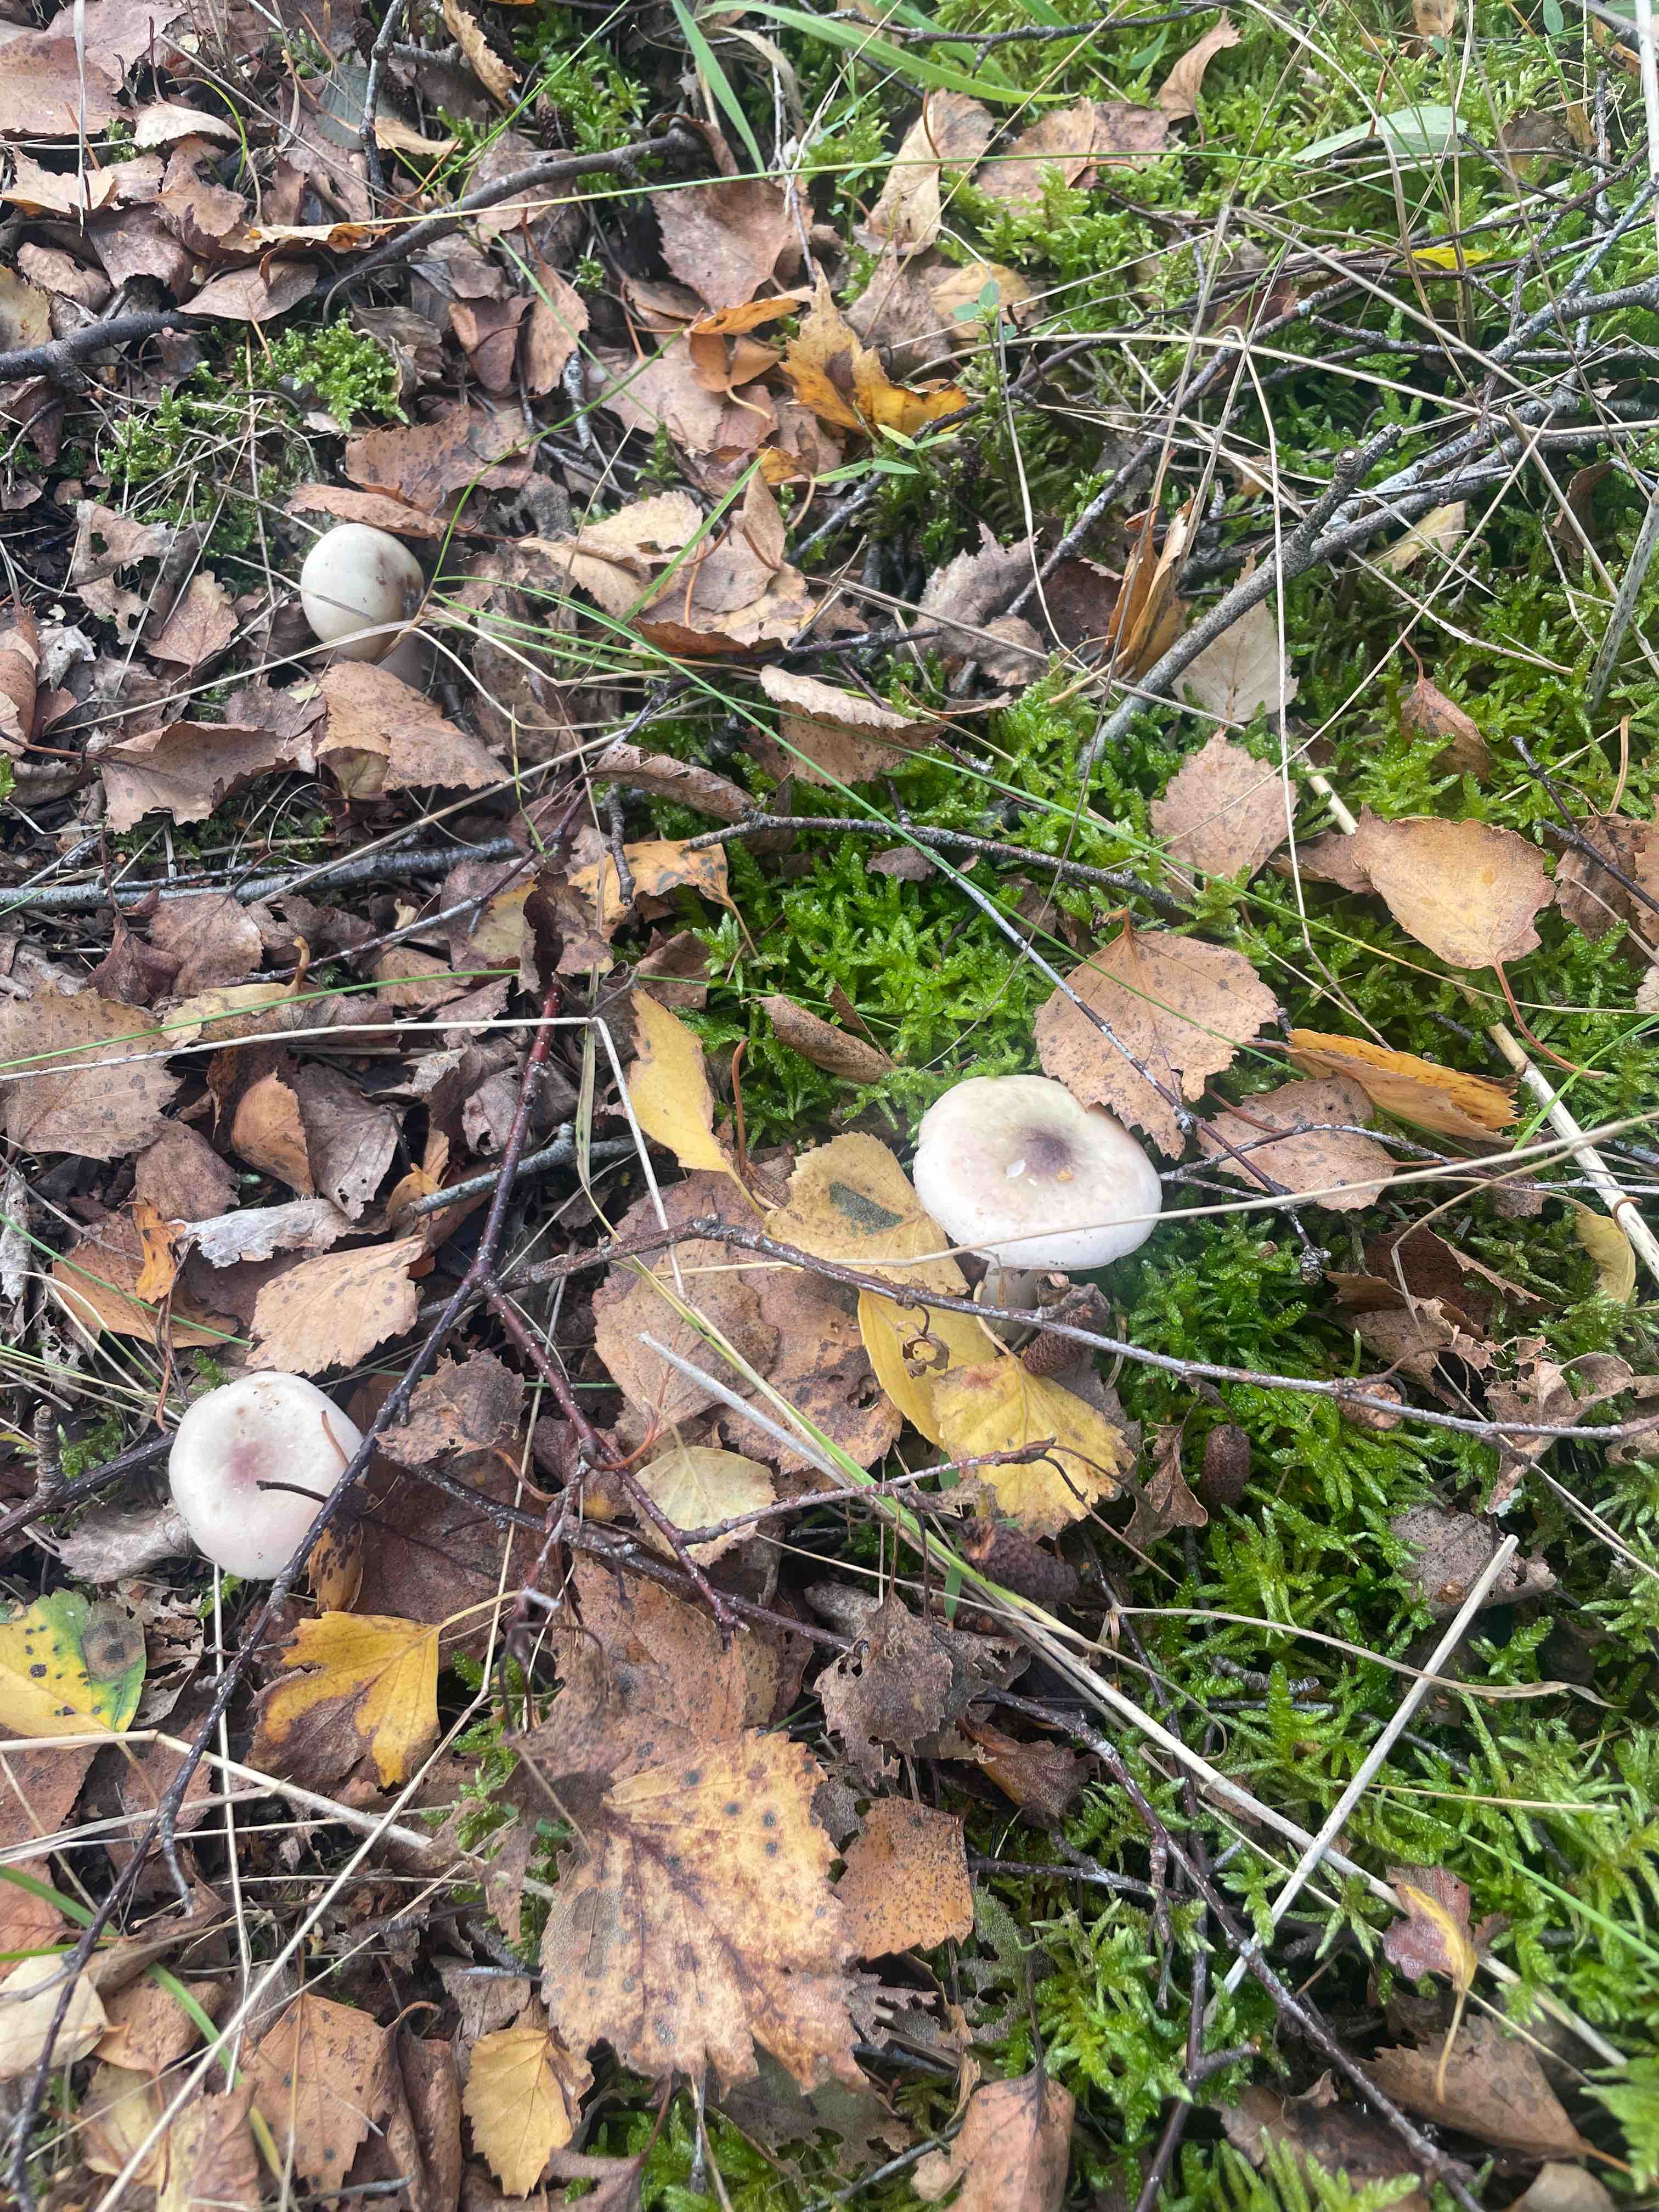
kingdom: Fungi
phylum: Basidiomycota
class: Agaricomycetes
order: Russulales
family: Russulaceae
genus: Russula
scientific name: Russula gracillima
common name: slank skørhat
